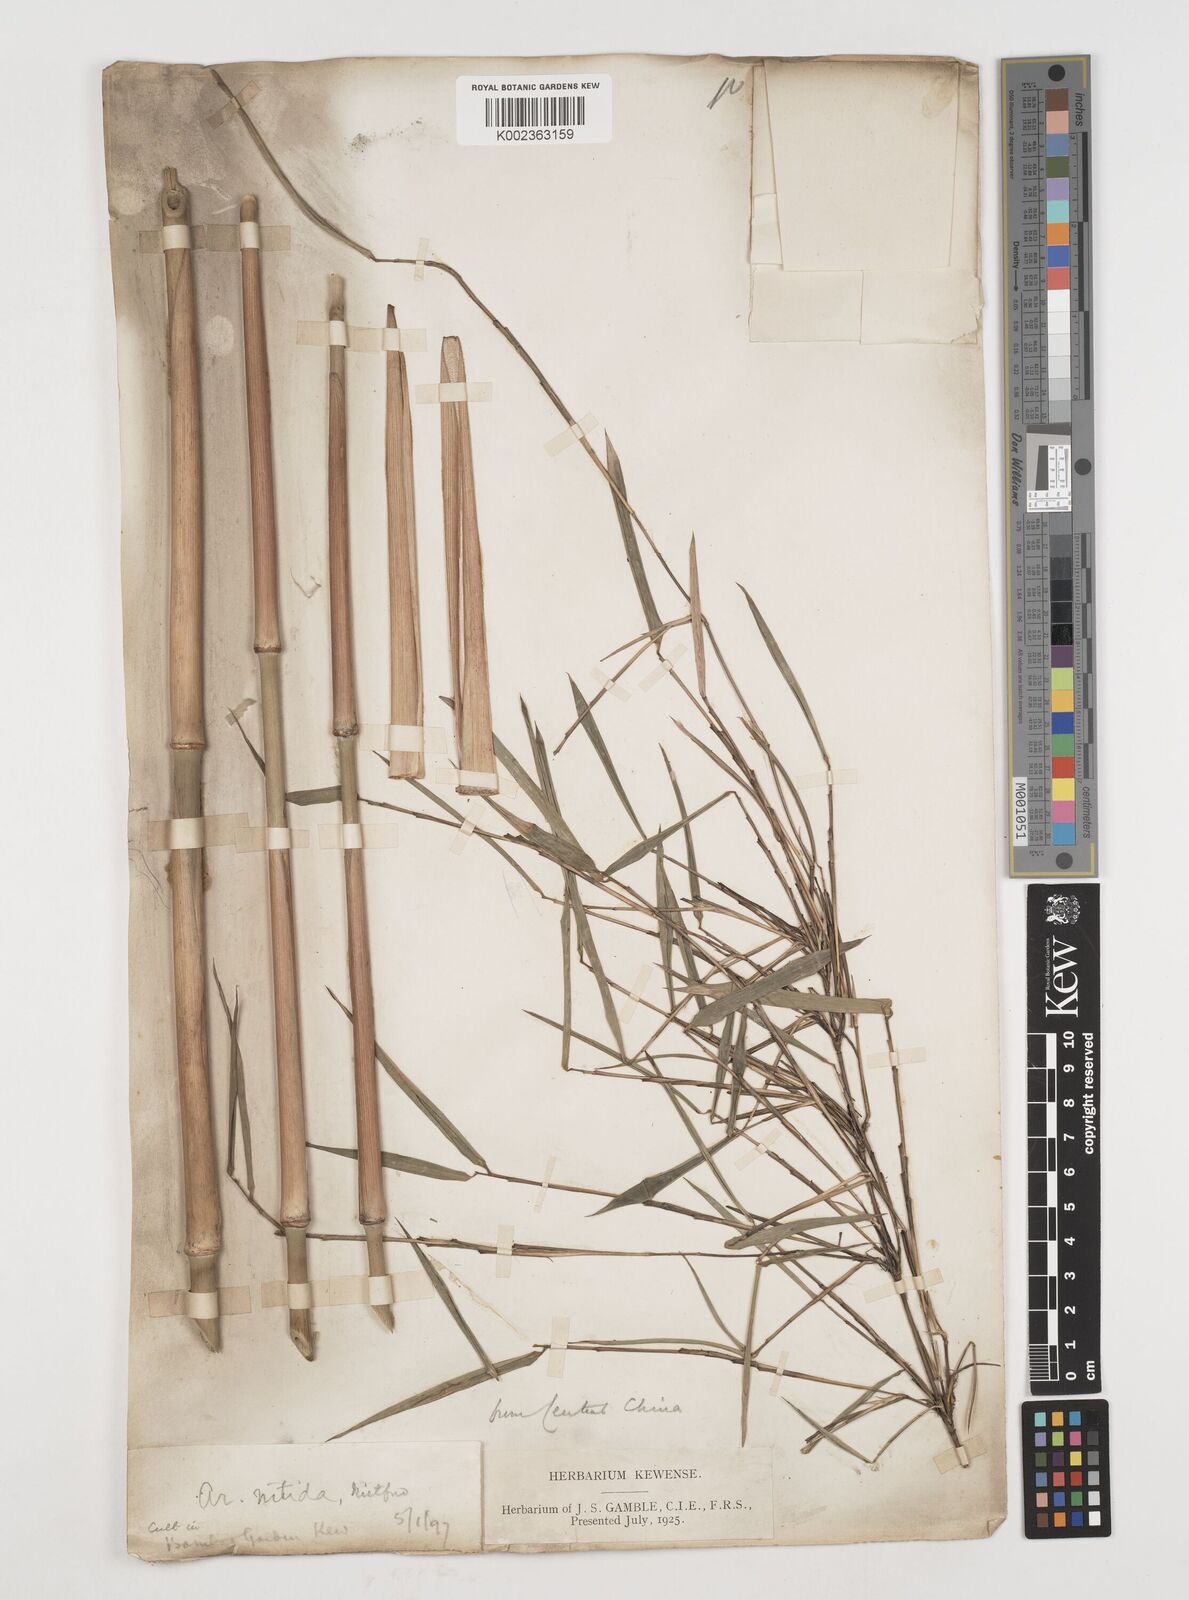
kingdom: Plantae
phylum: Tracheophyta
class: Liliopsida
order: Poales
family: Poaceae
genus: Fargesia
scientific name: Fargesia nitida ex
